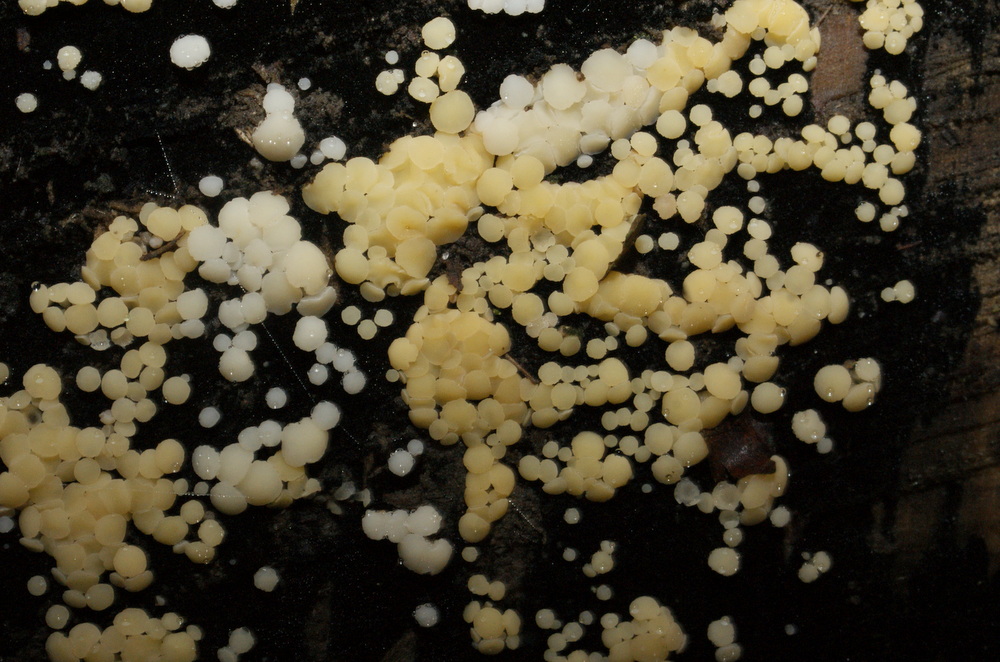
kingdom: Fungi
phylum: Ascomycota
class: Leotiomycetes
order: Helotiales
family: Helotiaceae
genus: Bispora
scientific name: Bispora pallescens
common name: måtte-snitskive
